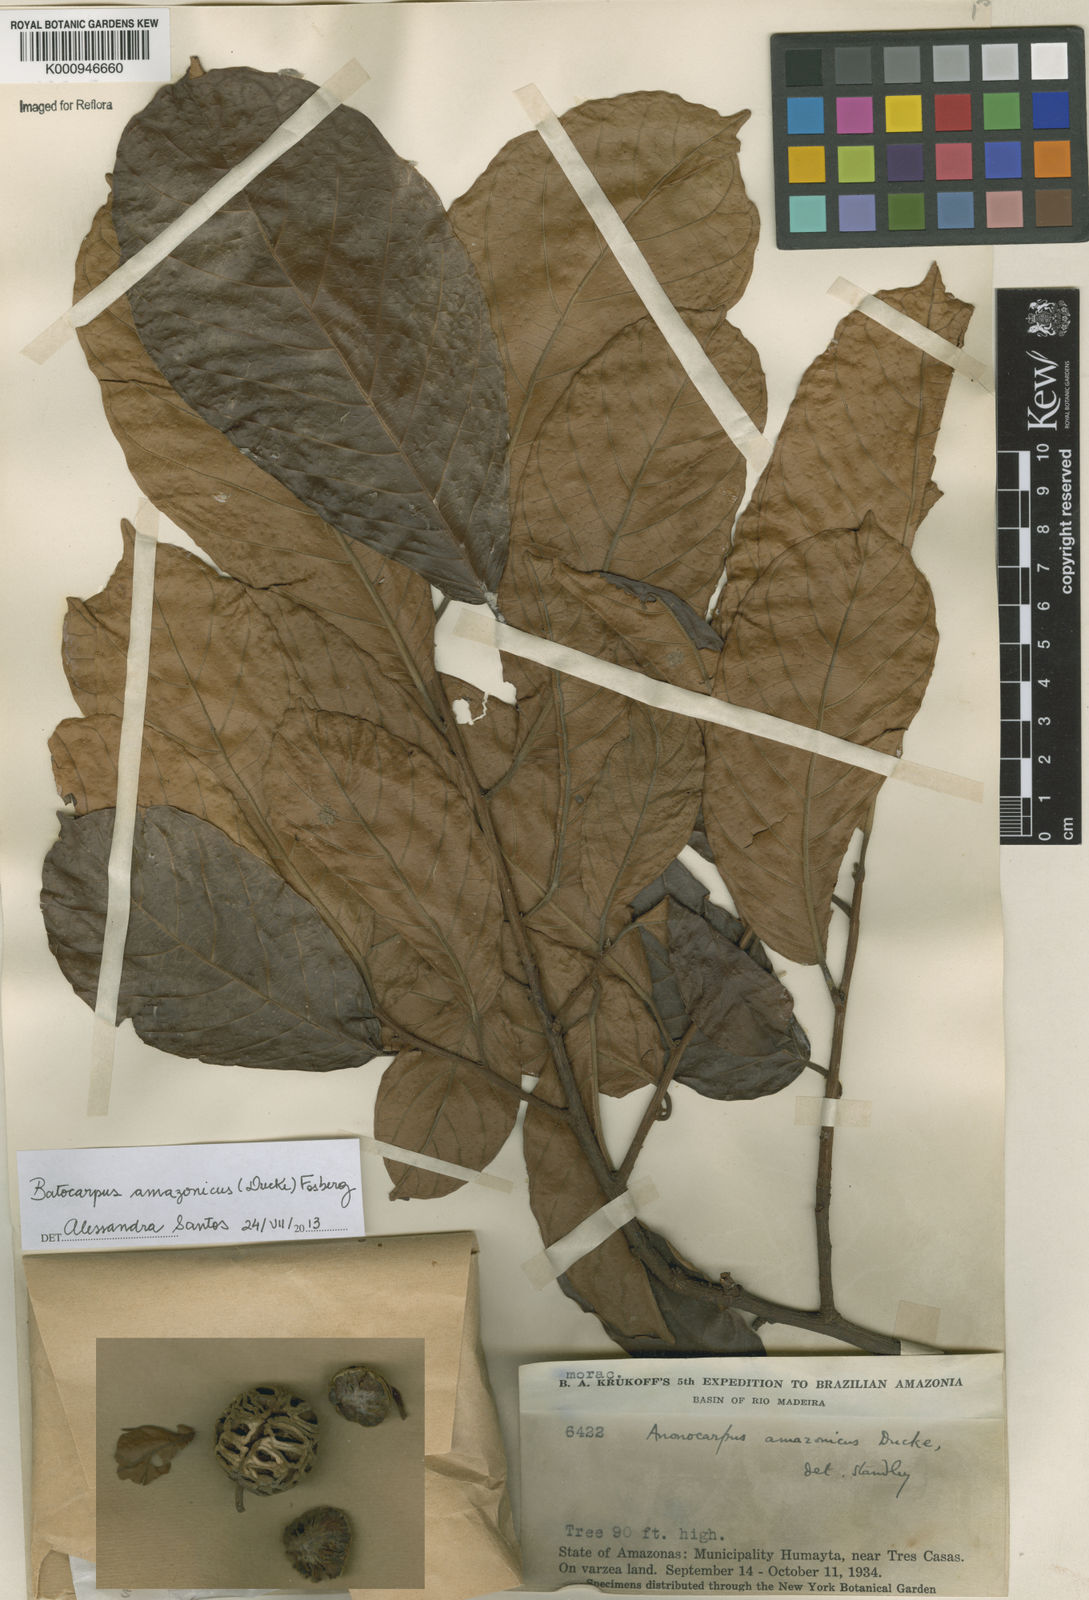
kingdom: Plantae
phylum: Tracheophyta
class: Magnoliopsida
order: Rosales
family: Moraceae
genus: Batocarpus
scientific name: Batocarpus amazonicus
